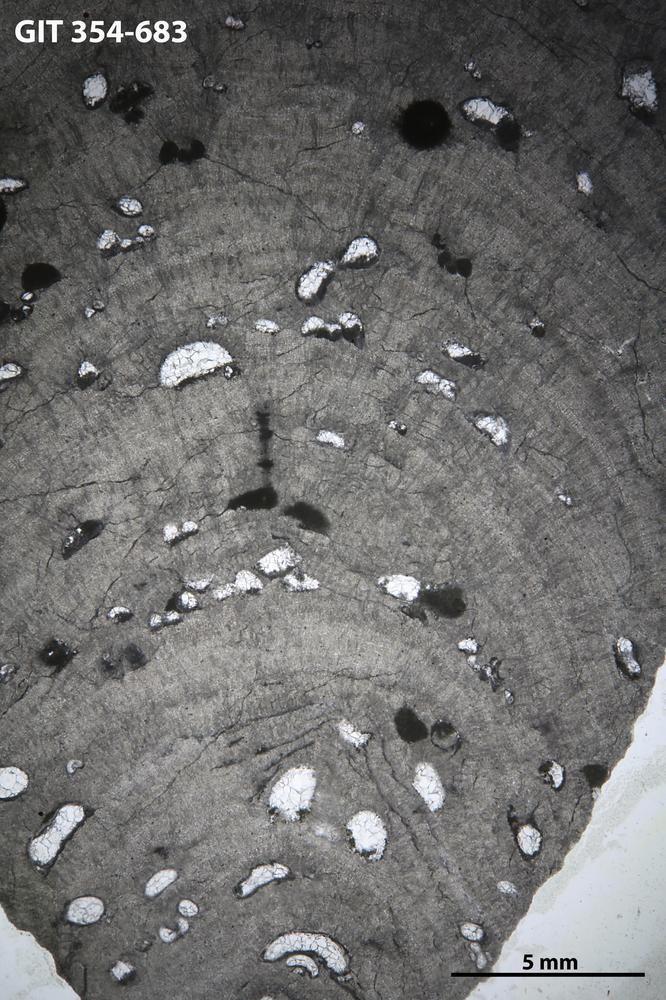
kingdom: Animalia
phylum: Porifera
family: Densastromatidae
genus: Densastroma
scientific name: Densastroma
